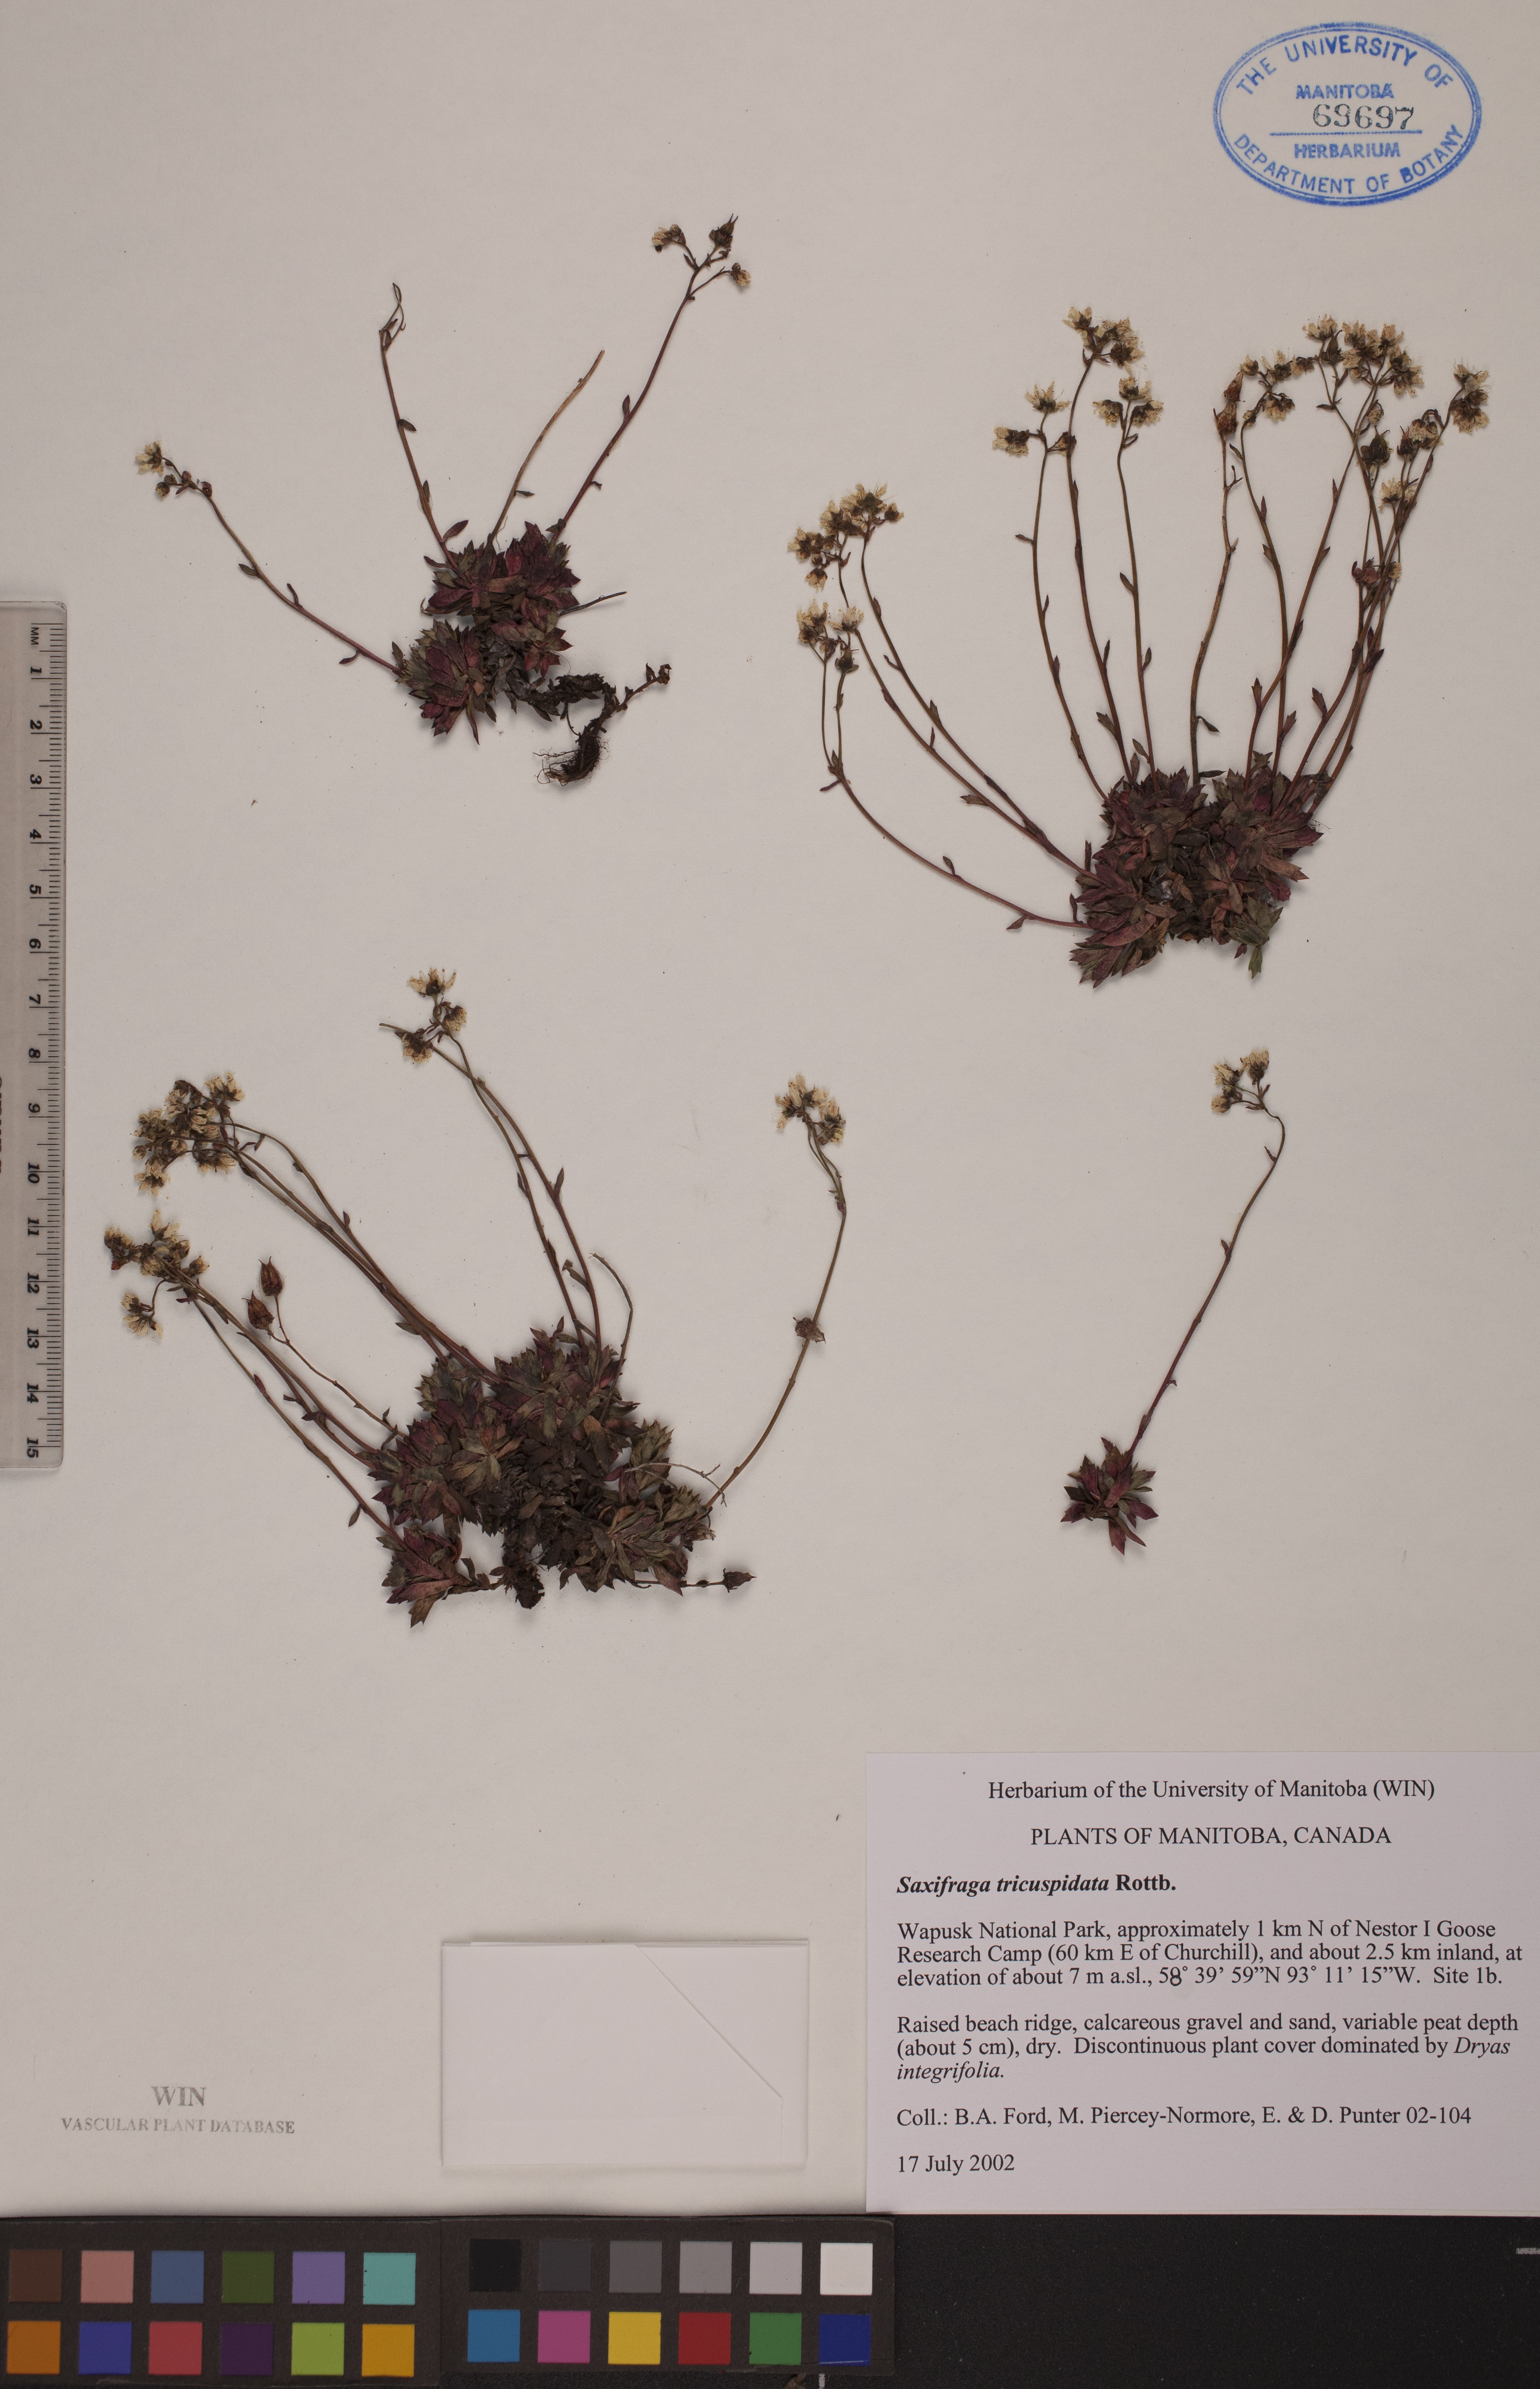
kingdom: Plantae
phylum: Tracheophyta
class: Magnoliopsida
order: Saxifragales
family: Saxifragaceae
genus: Saxifraga
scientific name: Saxifraga tricuspidata
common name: Prickly saxifrage
